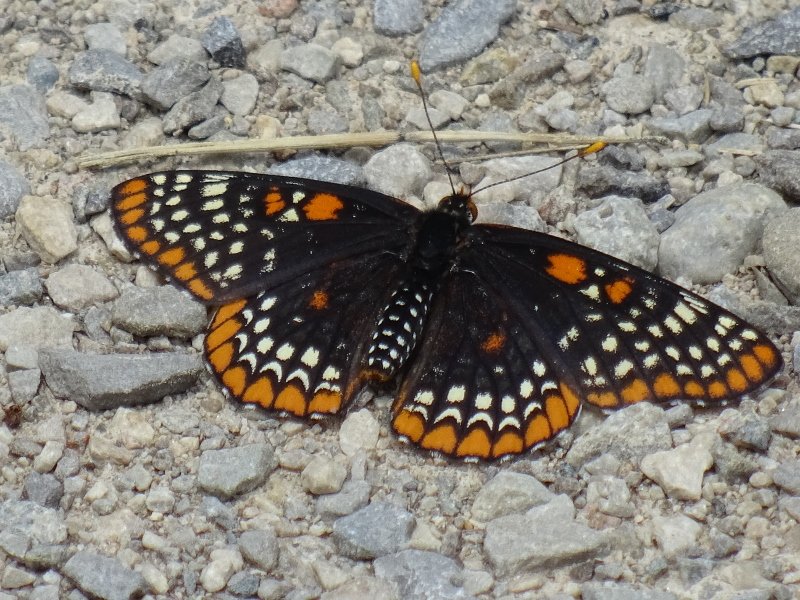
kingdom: Animalia
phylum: Arthropoda
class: Insecta
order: Lepidoptera
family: Nymphalidae
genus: Euphydryas
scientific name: Euphydryas phaeton
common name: Baltimore Checkerspot
